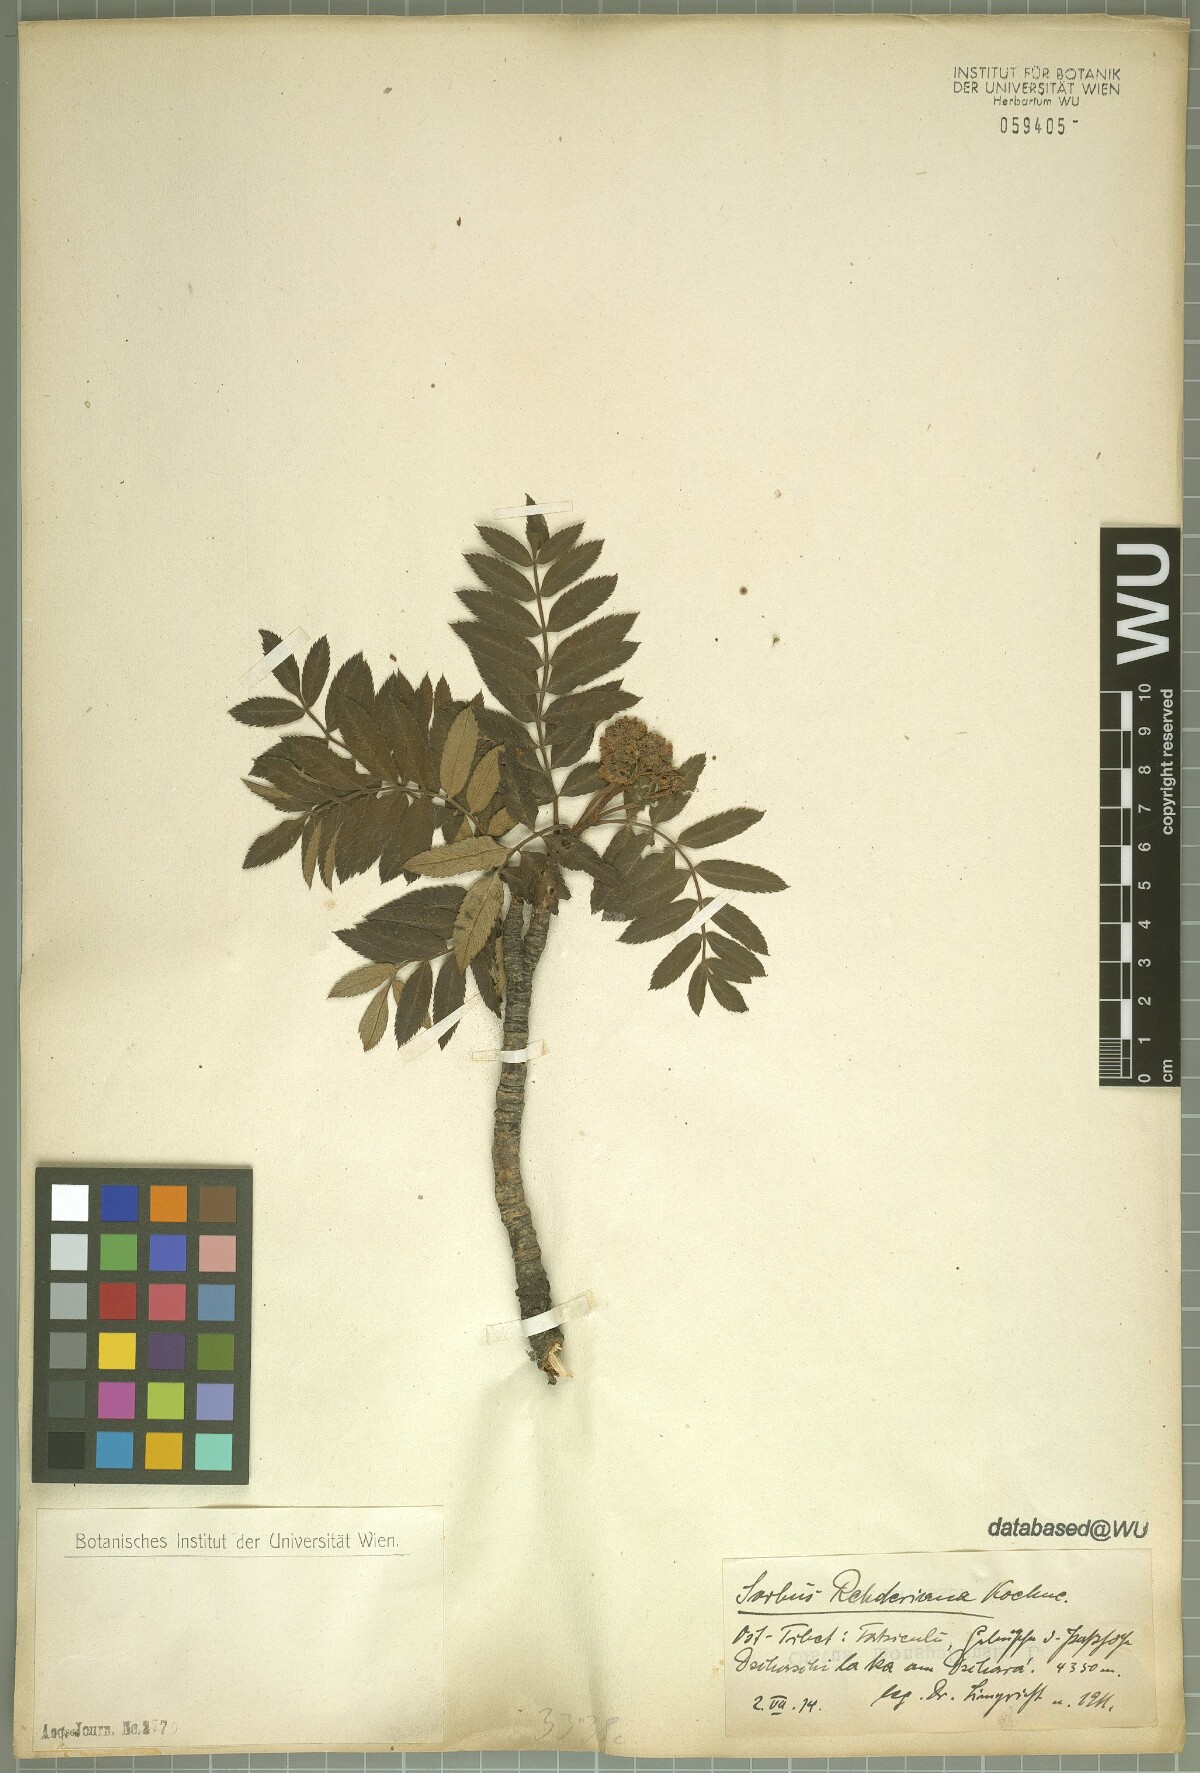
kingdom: Plantae
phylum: Tracheophyta
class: Magnoliopsida
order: Rosales
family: Rosaceae
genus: Sorbus
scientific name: Sorbus rehderiana
